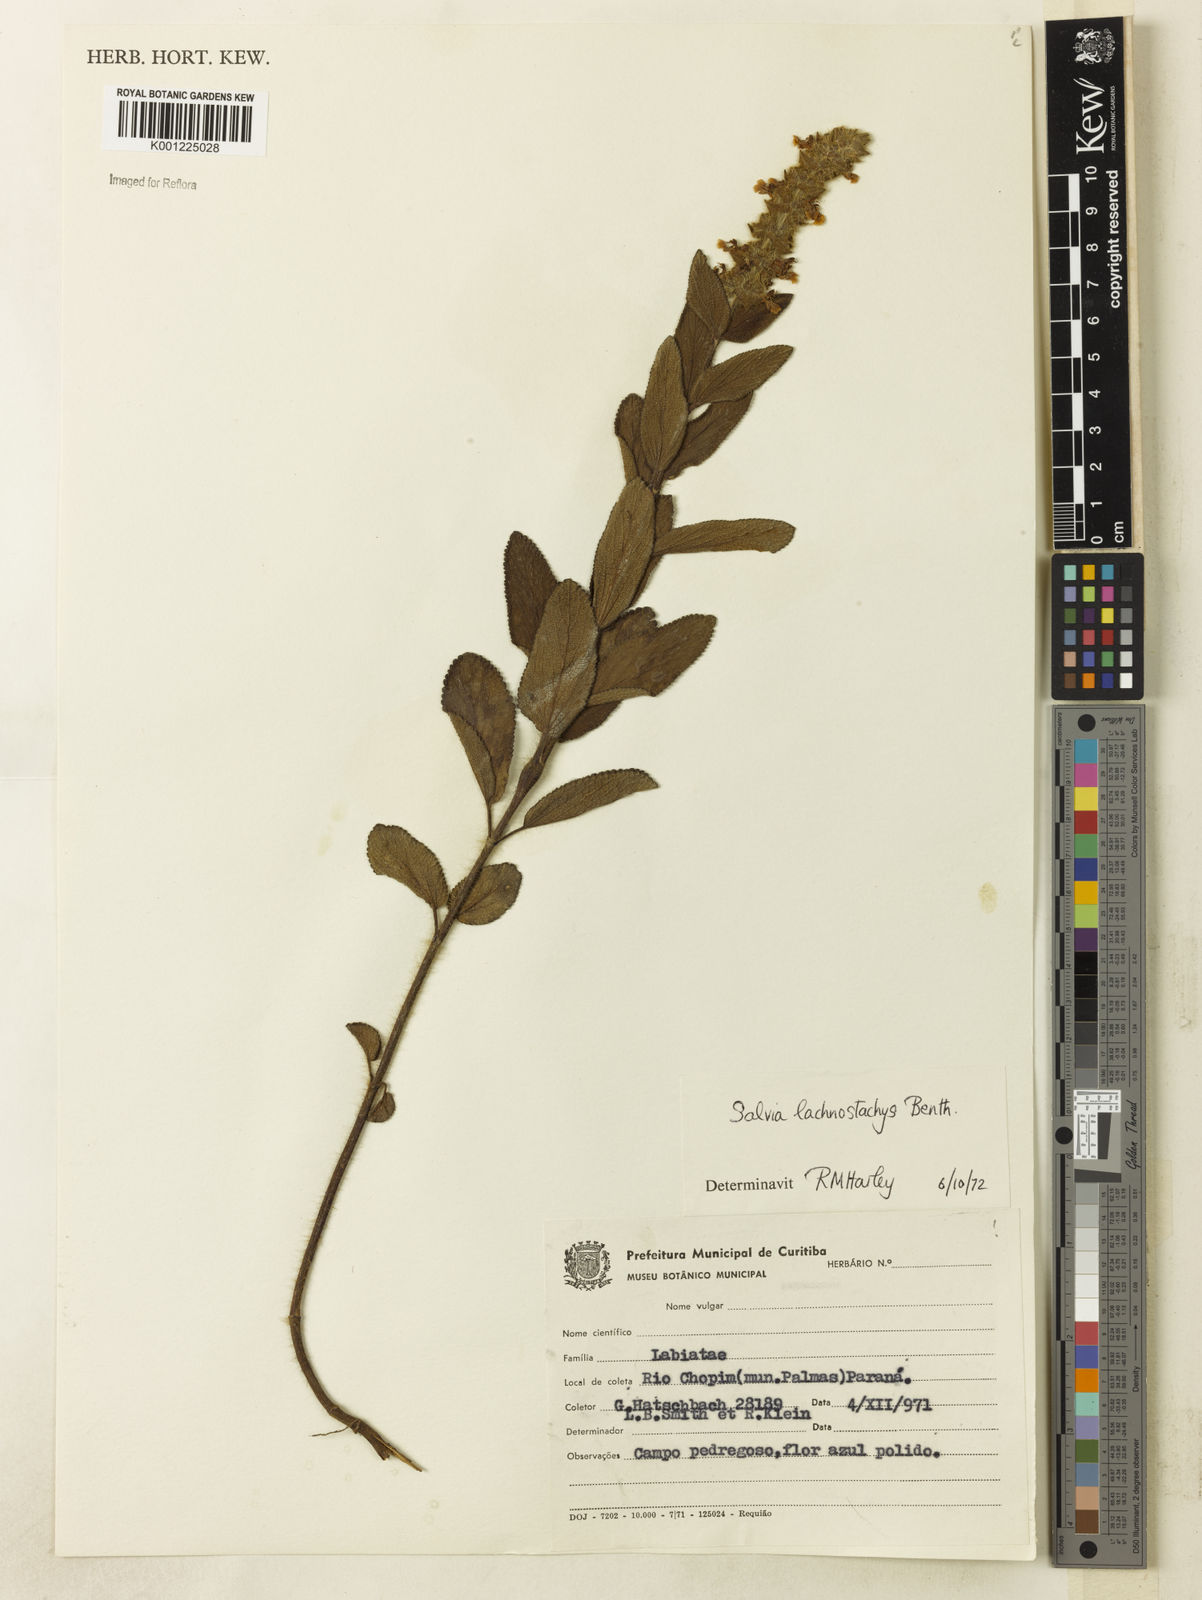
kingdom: Plantae
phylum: Tracheophyta
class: Magnoliopsida
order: Lamiales
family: Lamiaceae
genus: Salvia
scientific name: Salvia lachnostachys
